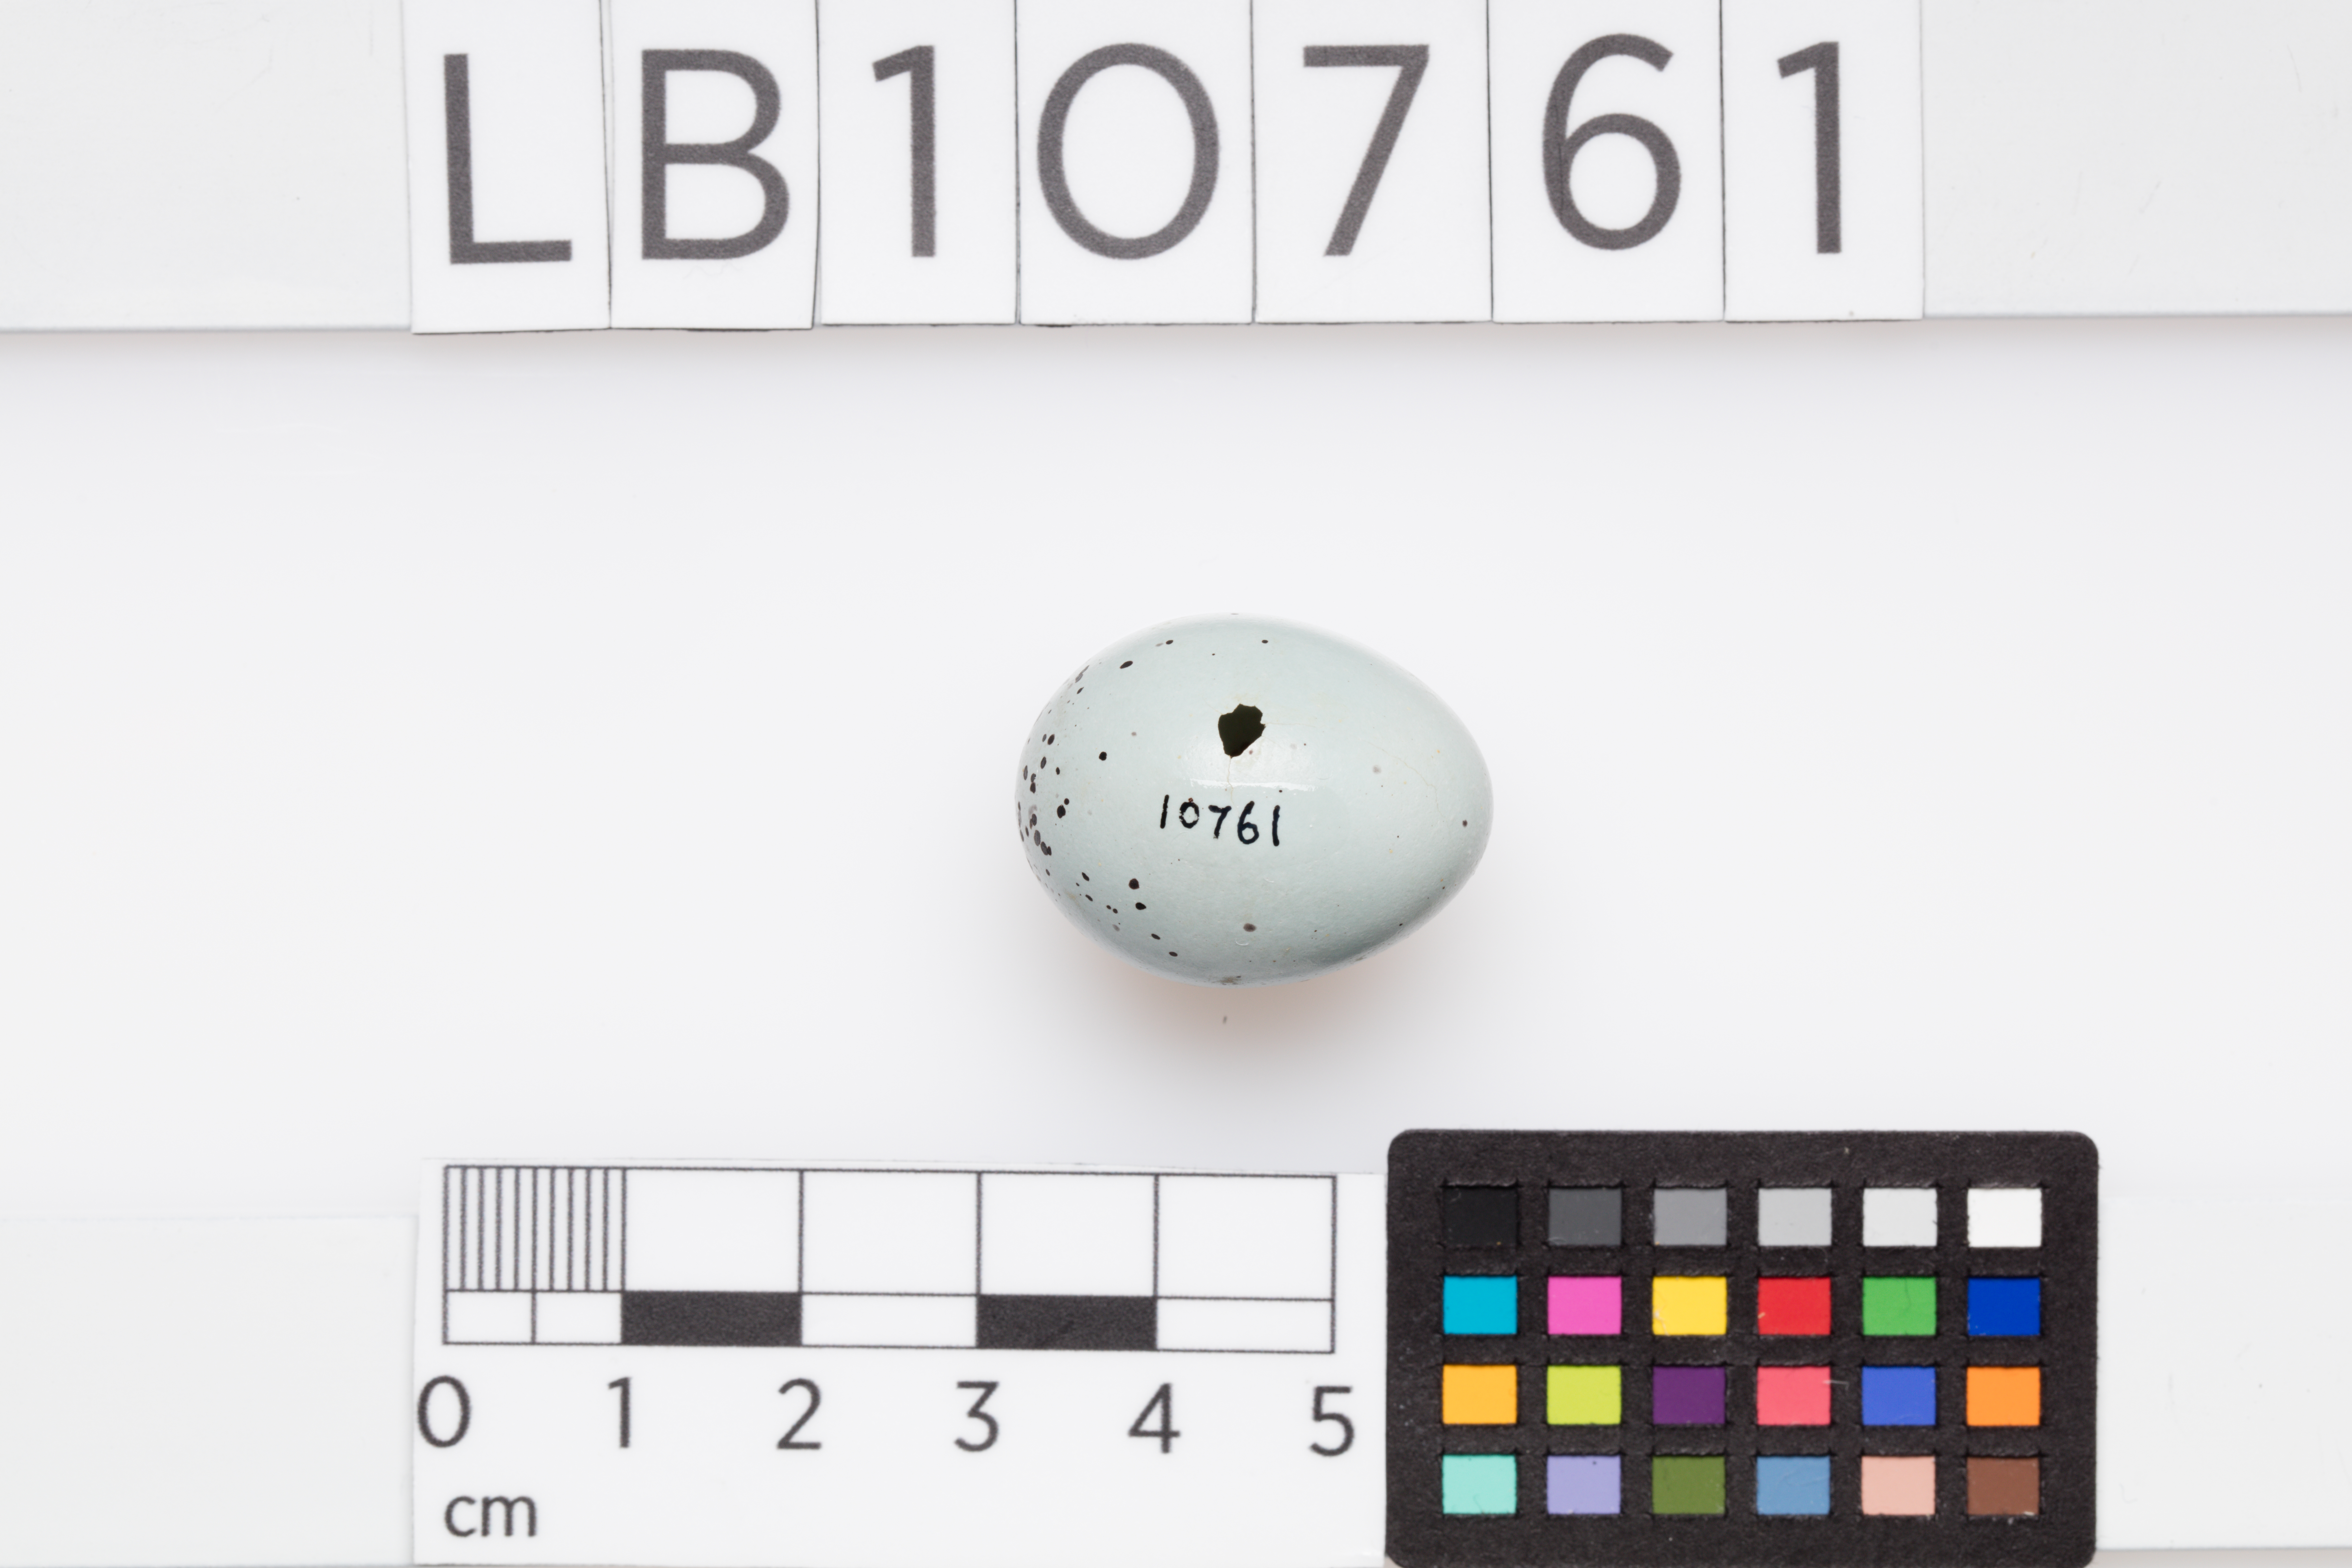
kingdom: Animalia
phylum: Chordata
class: Aves
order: Passeriformes
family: Turdidae
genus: Turdus
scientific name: Turdus philomelos
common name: Song thrush
